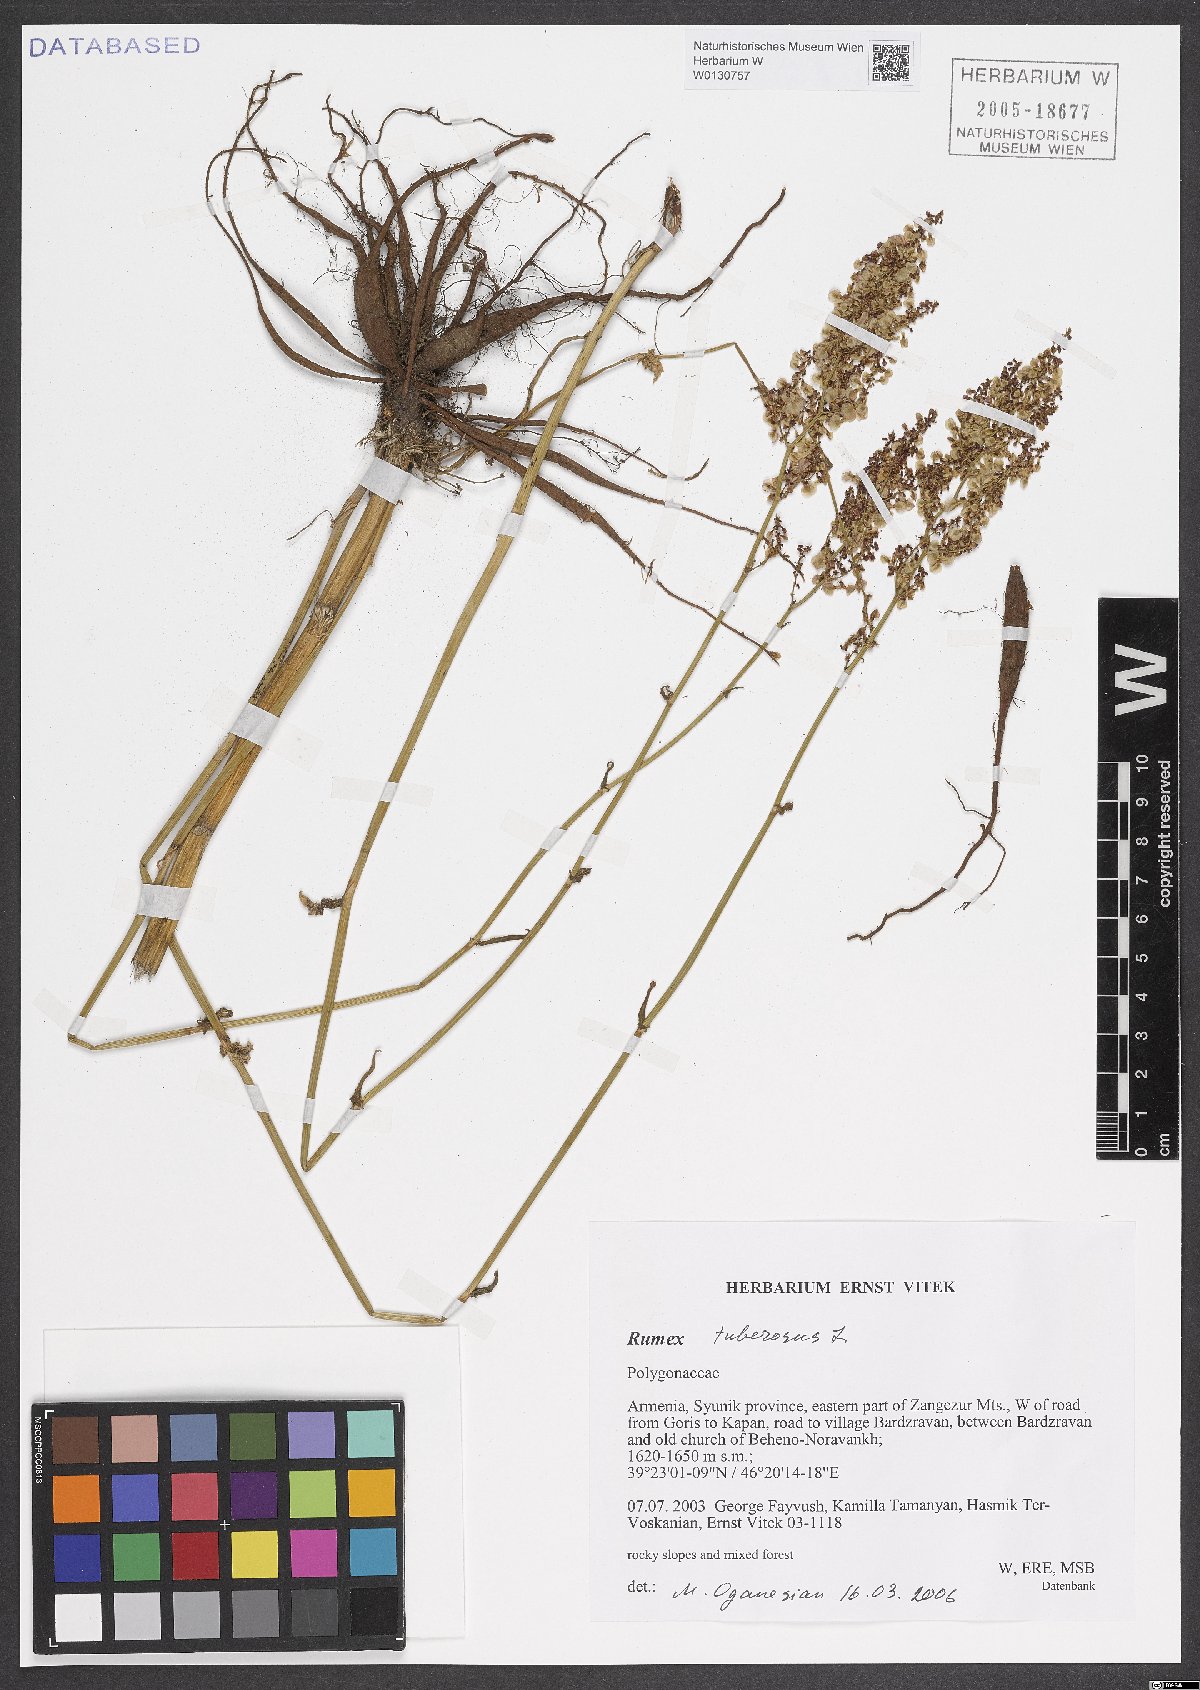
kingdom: Plantae
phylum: Tracheophyta
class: Magnoliopsida
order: Caryophyllales
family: Polygonaceae
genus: Rumex
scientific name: Rumex tuberosus
